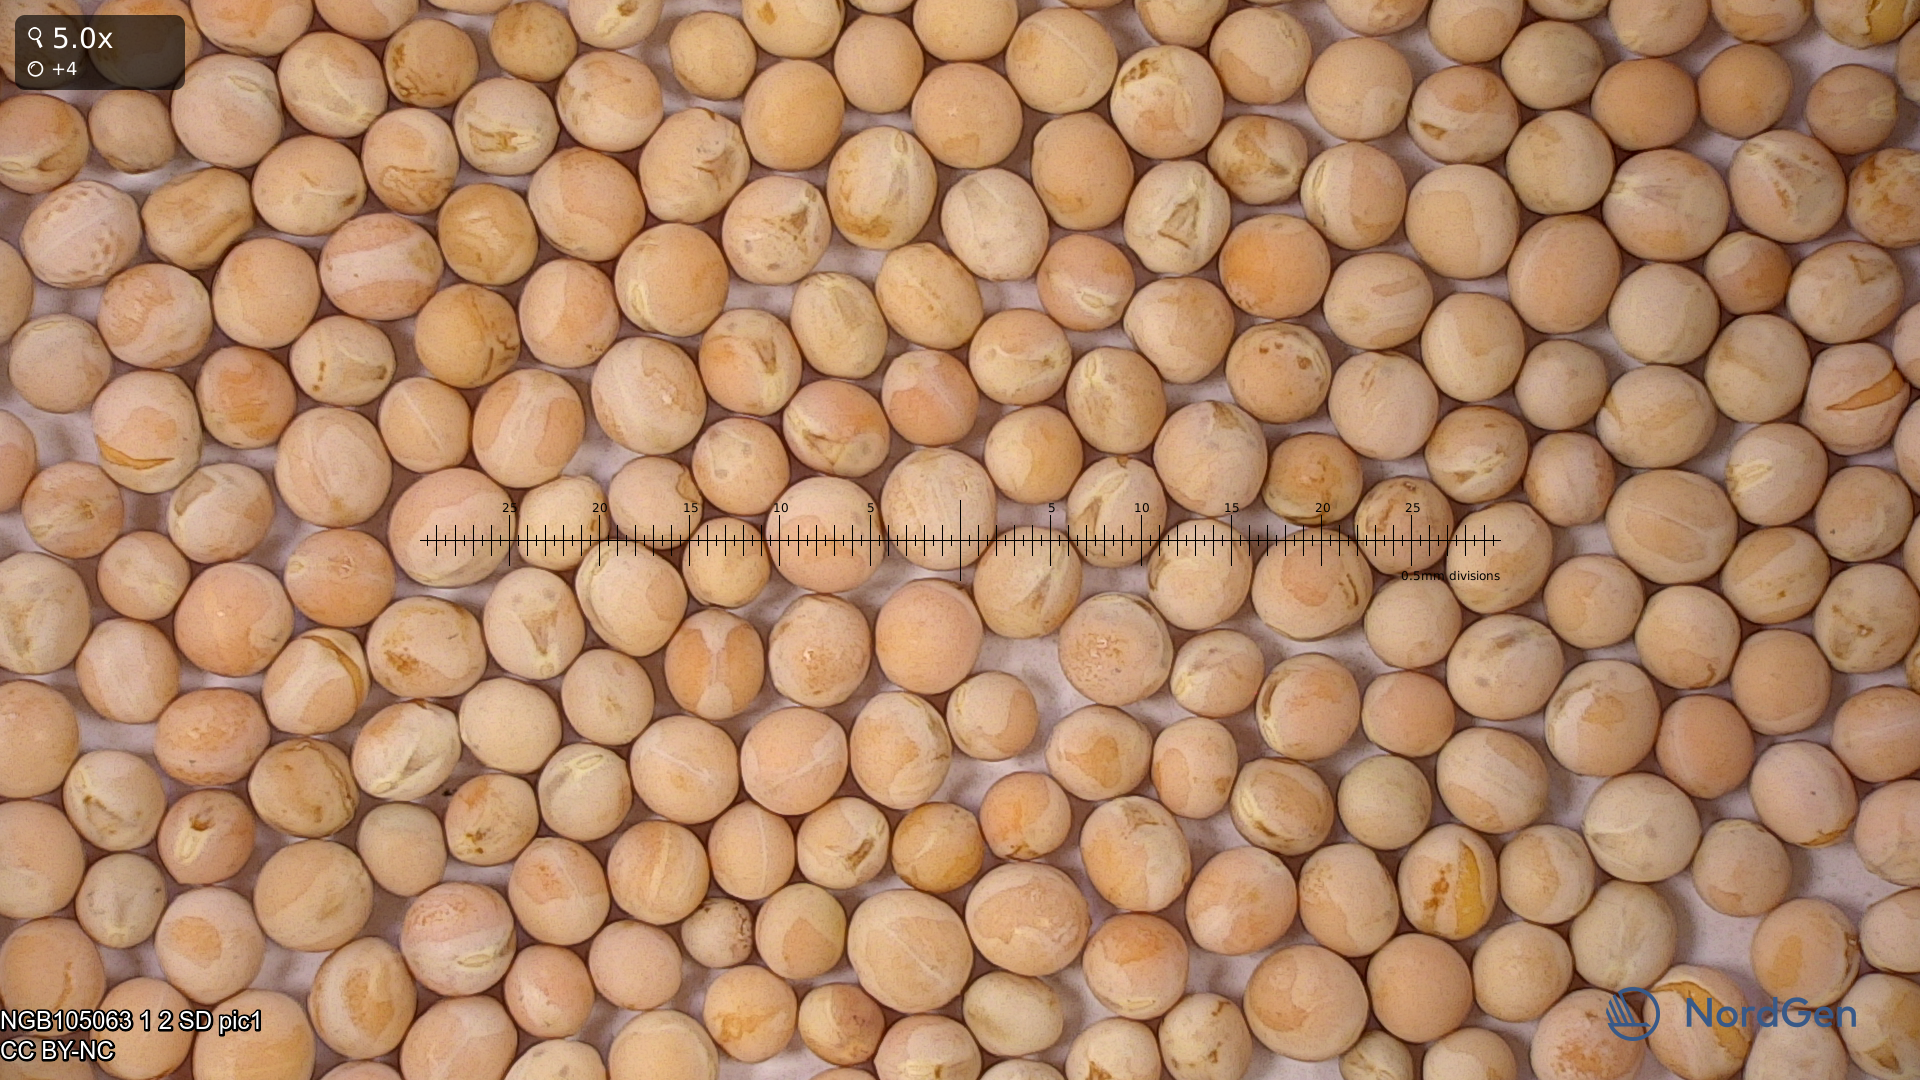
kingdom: Plantae
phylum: Tracheophyta
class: Magnoliopsida
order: Fabales
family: Fabaceae
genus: Lathyrus
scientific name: Lathyrus oleraceus
